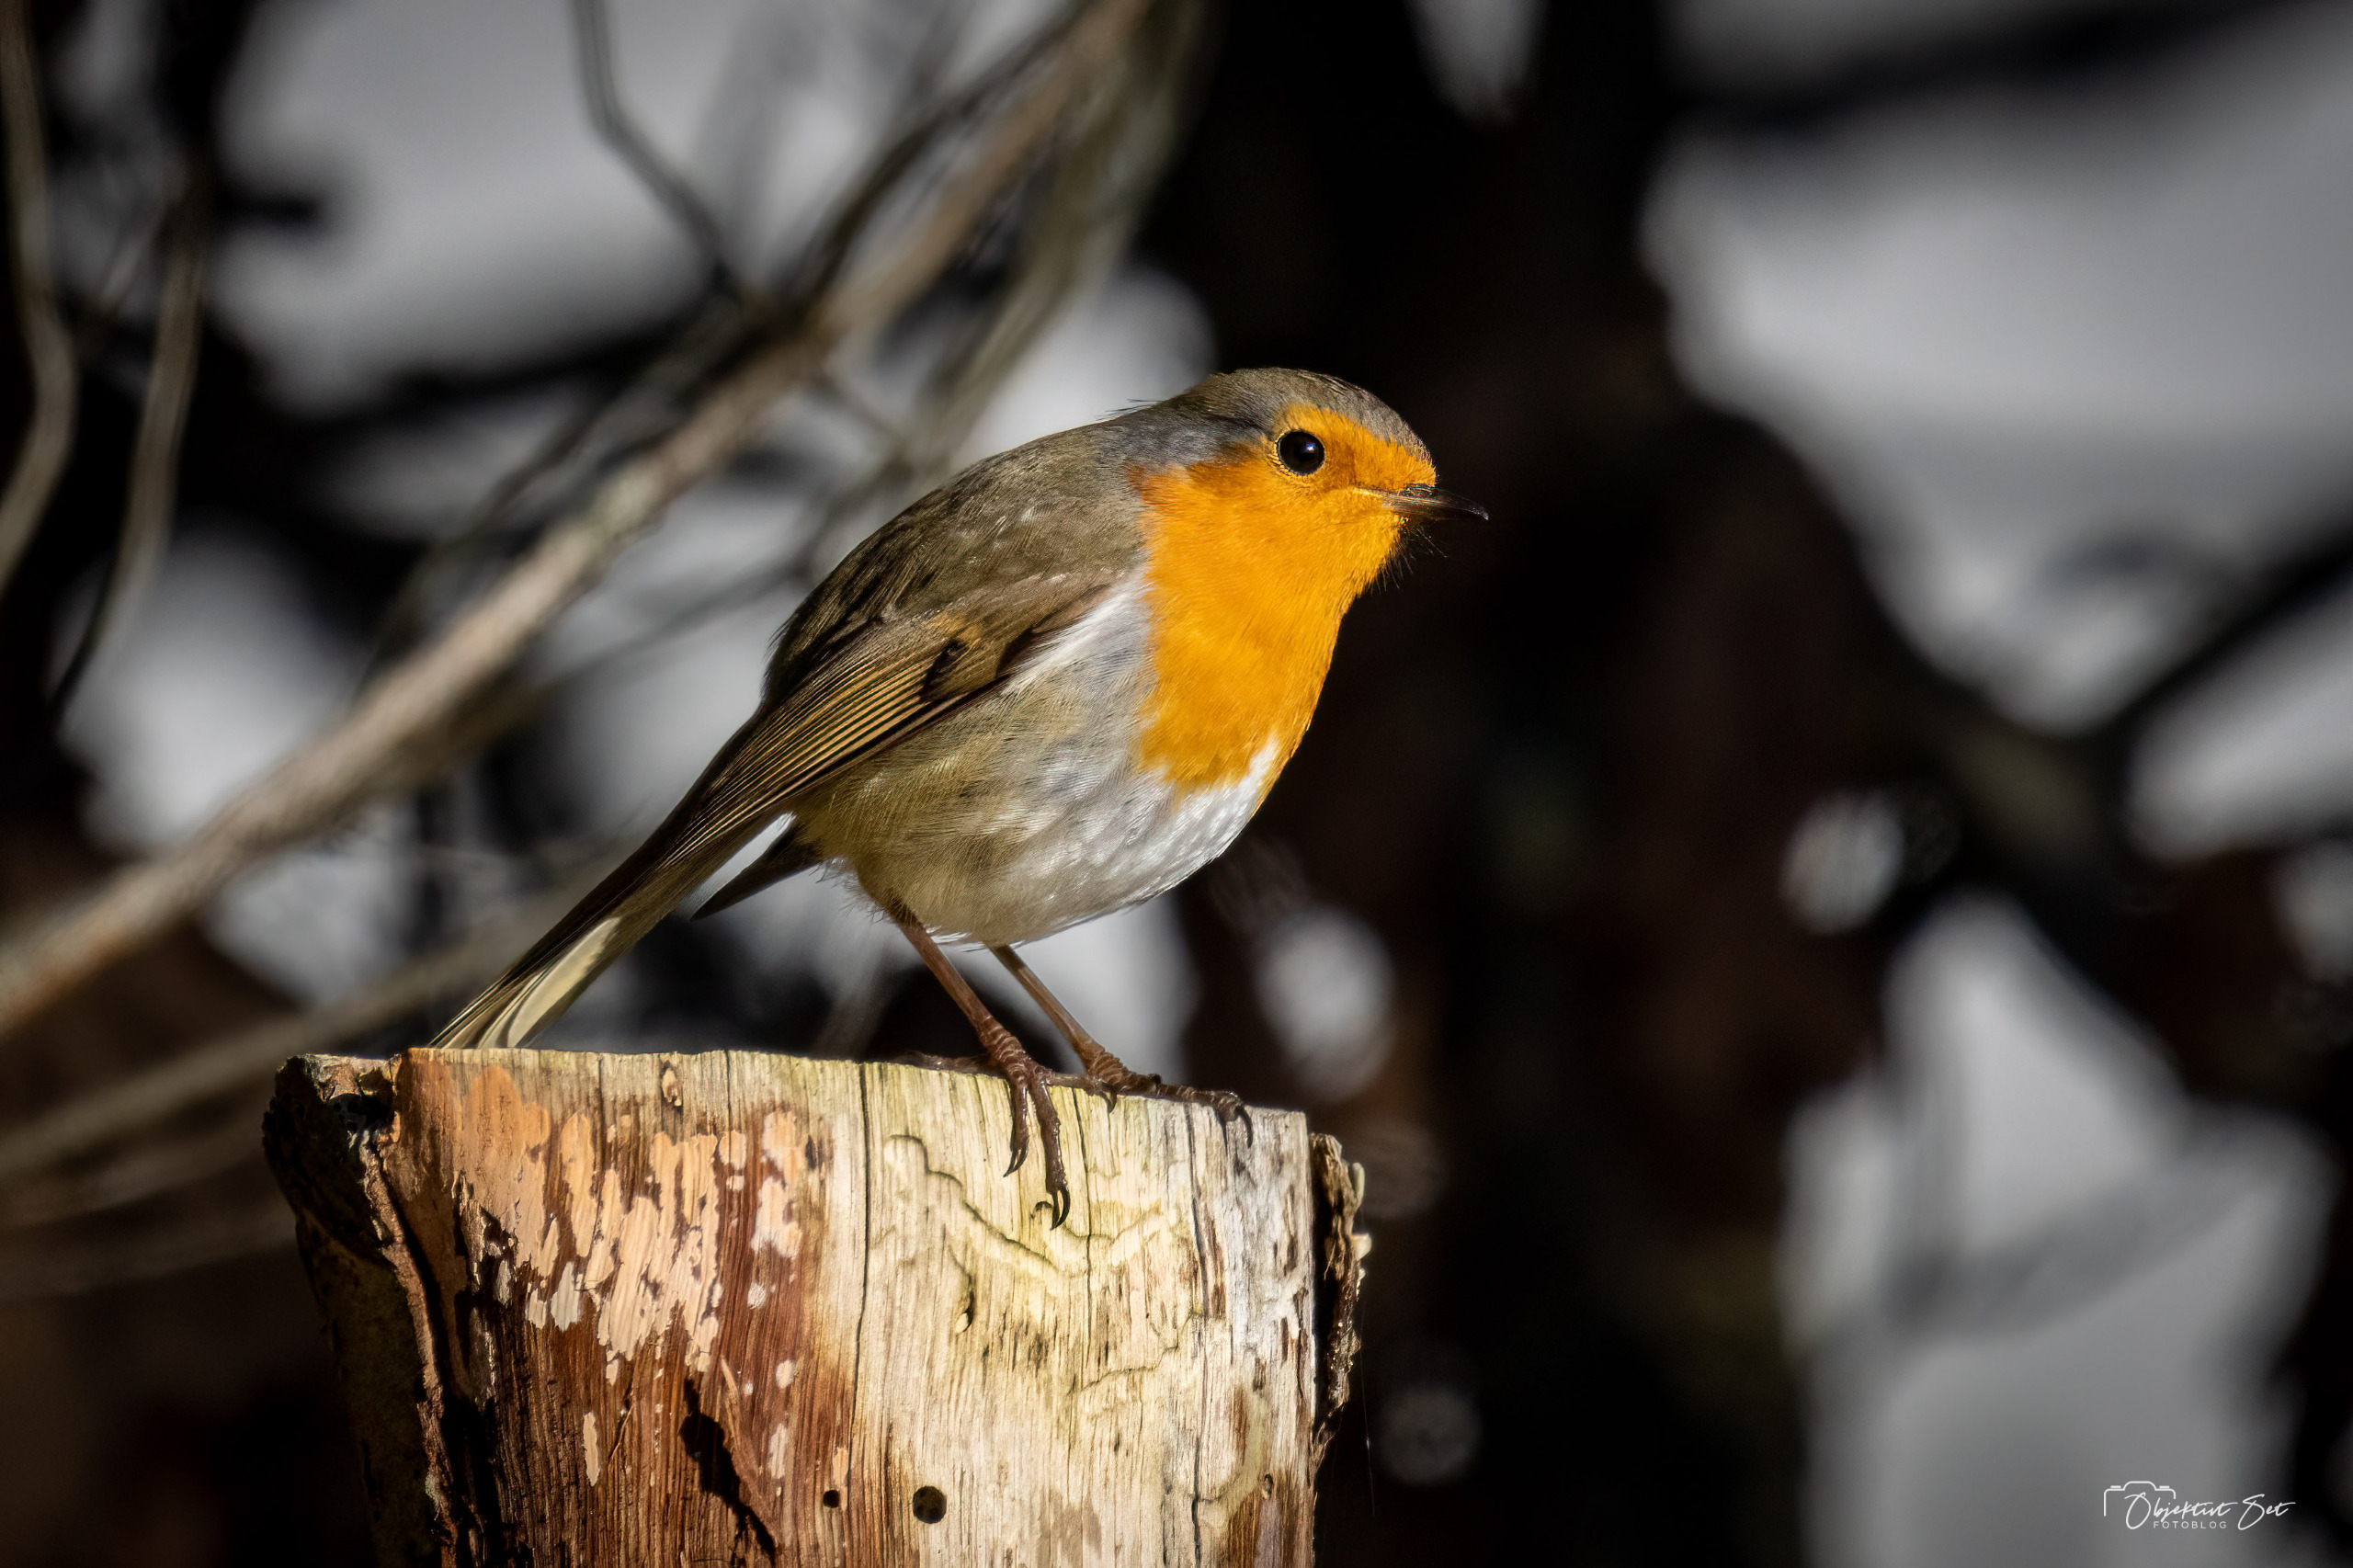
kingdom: Animalia
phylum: Chordata
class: Aves
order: Passeriformes
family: Muscicapidae
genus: Erithacus
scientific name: Erithacus rubecula
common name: Rødhals/rødkælk
